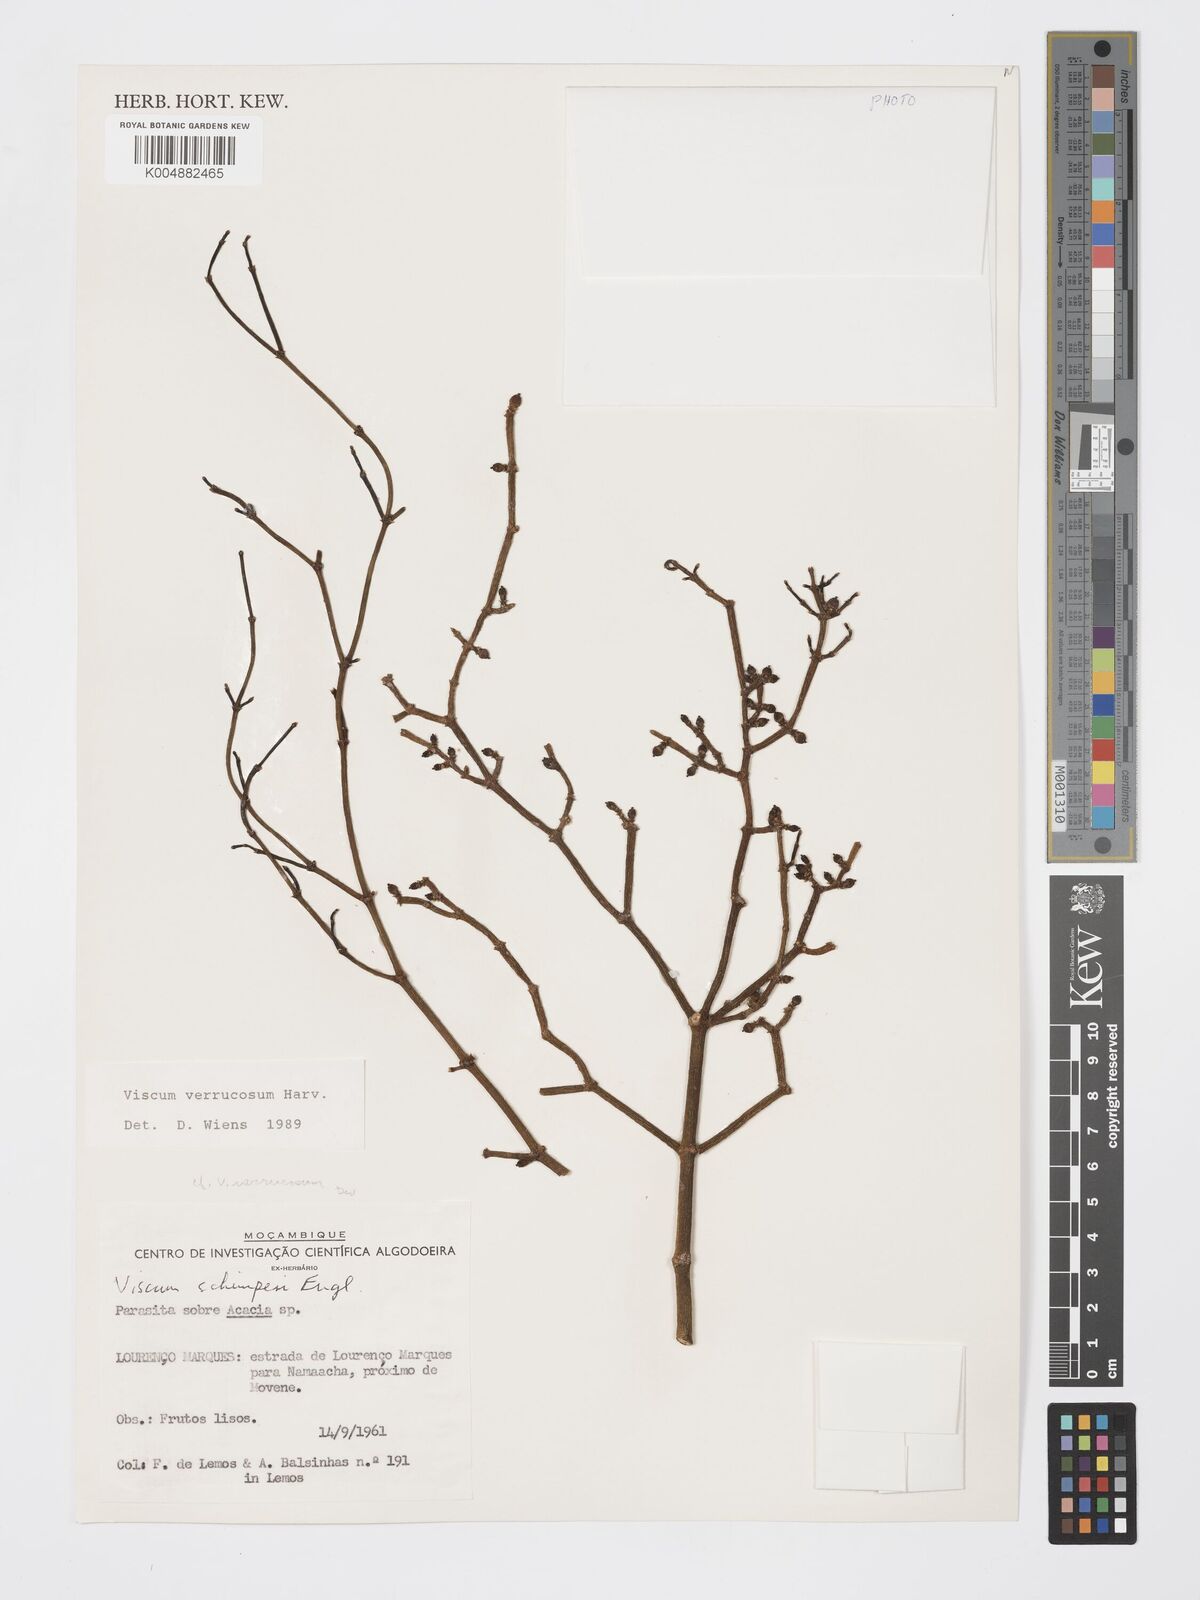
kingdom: Plantae
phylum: Tracheophyta
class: Magnoliopsida
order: Santalales
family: Viscaceae
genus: Viscum
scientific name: Viscum verrucosum
